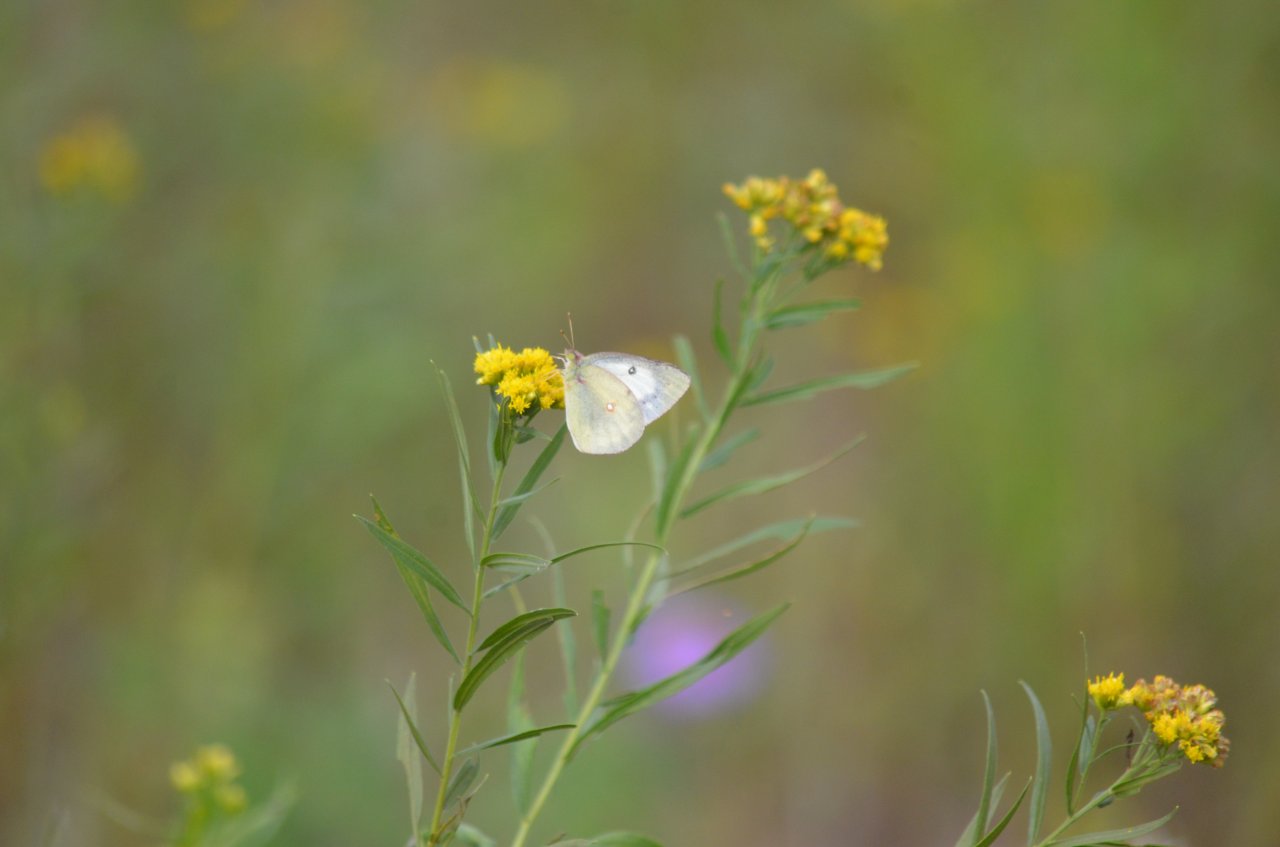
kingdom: Animalia
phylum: Arthropoda
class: Insecta
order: Lepidoptera
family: Pieridae
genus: Colias
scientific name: Colias philodice
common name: Clouded Sulphur
